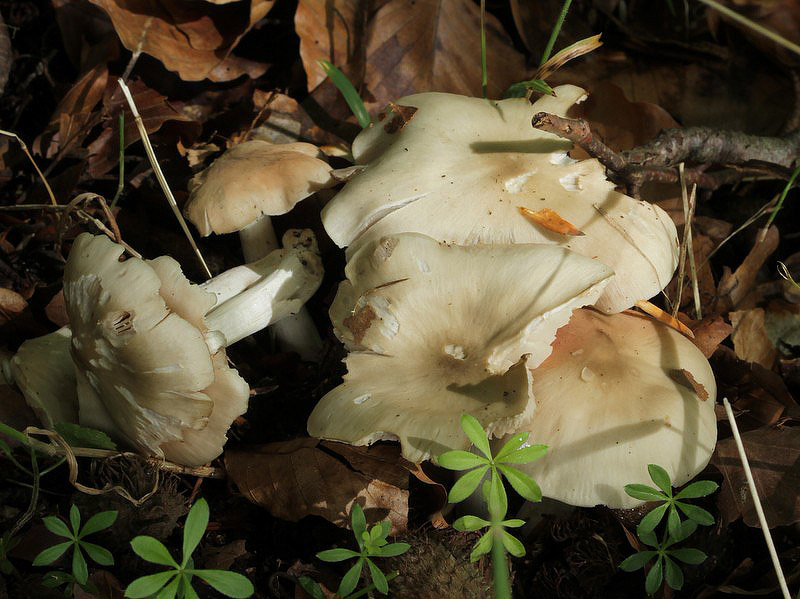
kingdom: Fungi
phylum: Basidiomycota
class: Agaricomycetes
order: Agaricales
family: Entolomataceae
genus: Entoloma
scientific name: Entoloma sericatum
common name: rank rødblad
